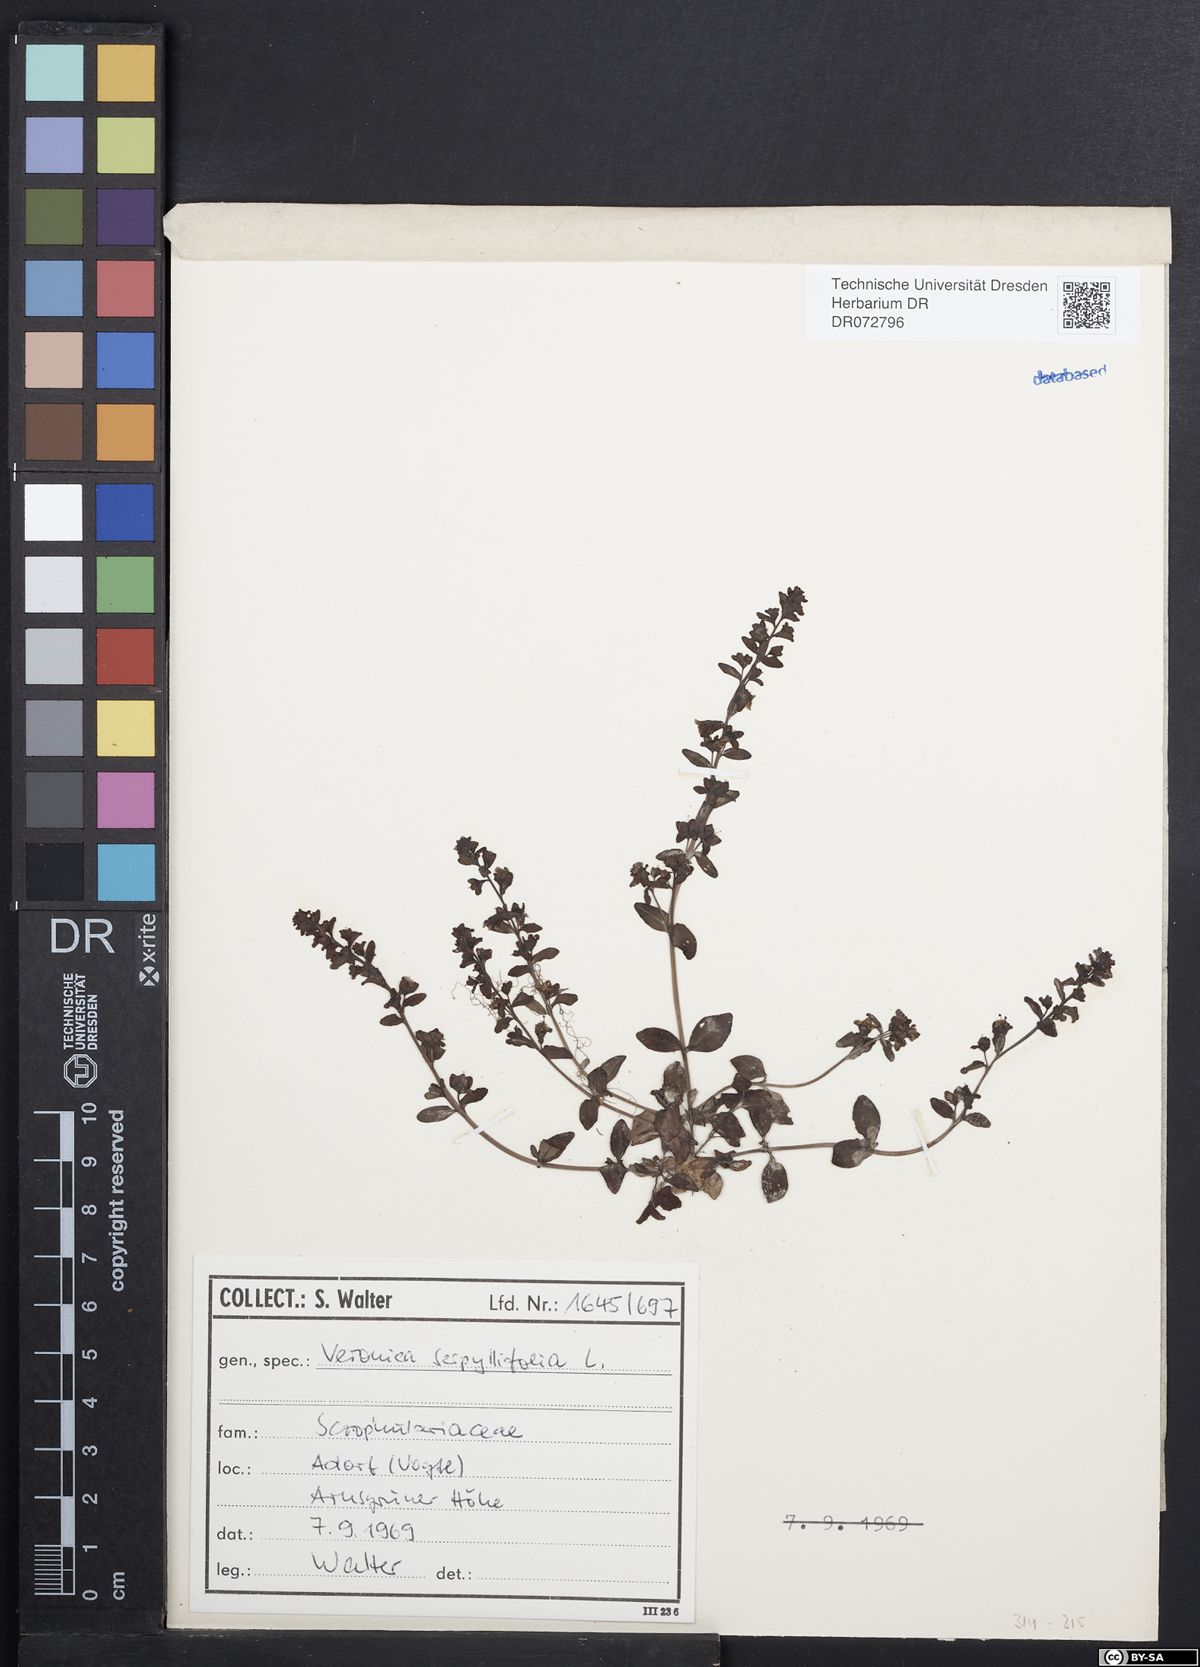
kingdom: Plantae
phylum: Tracheophyta
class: Magnoliopsida
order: Lamiales
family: Plantaginaceae
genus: Veronica
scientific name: Veronica serpyllifolia
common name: Thyme-leaved speedwell
